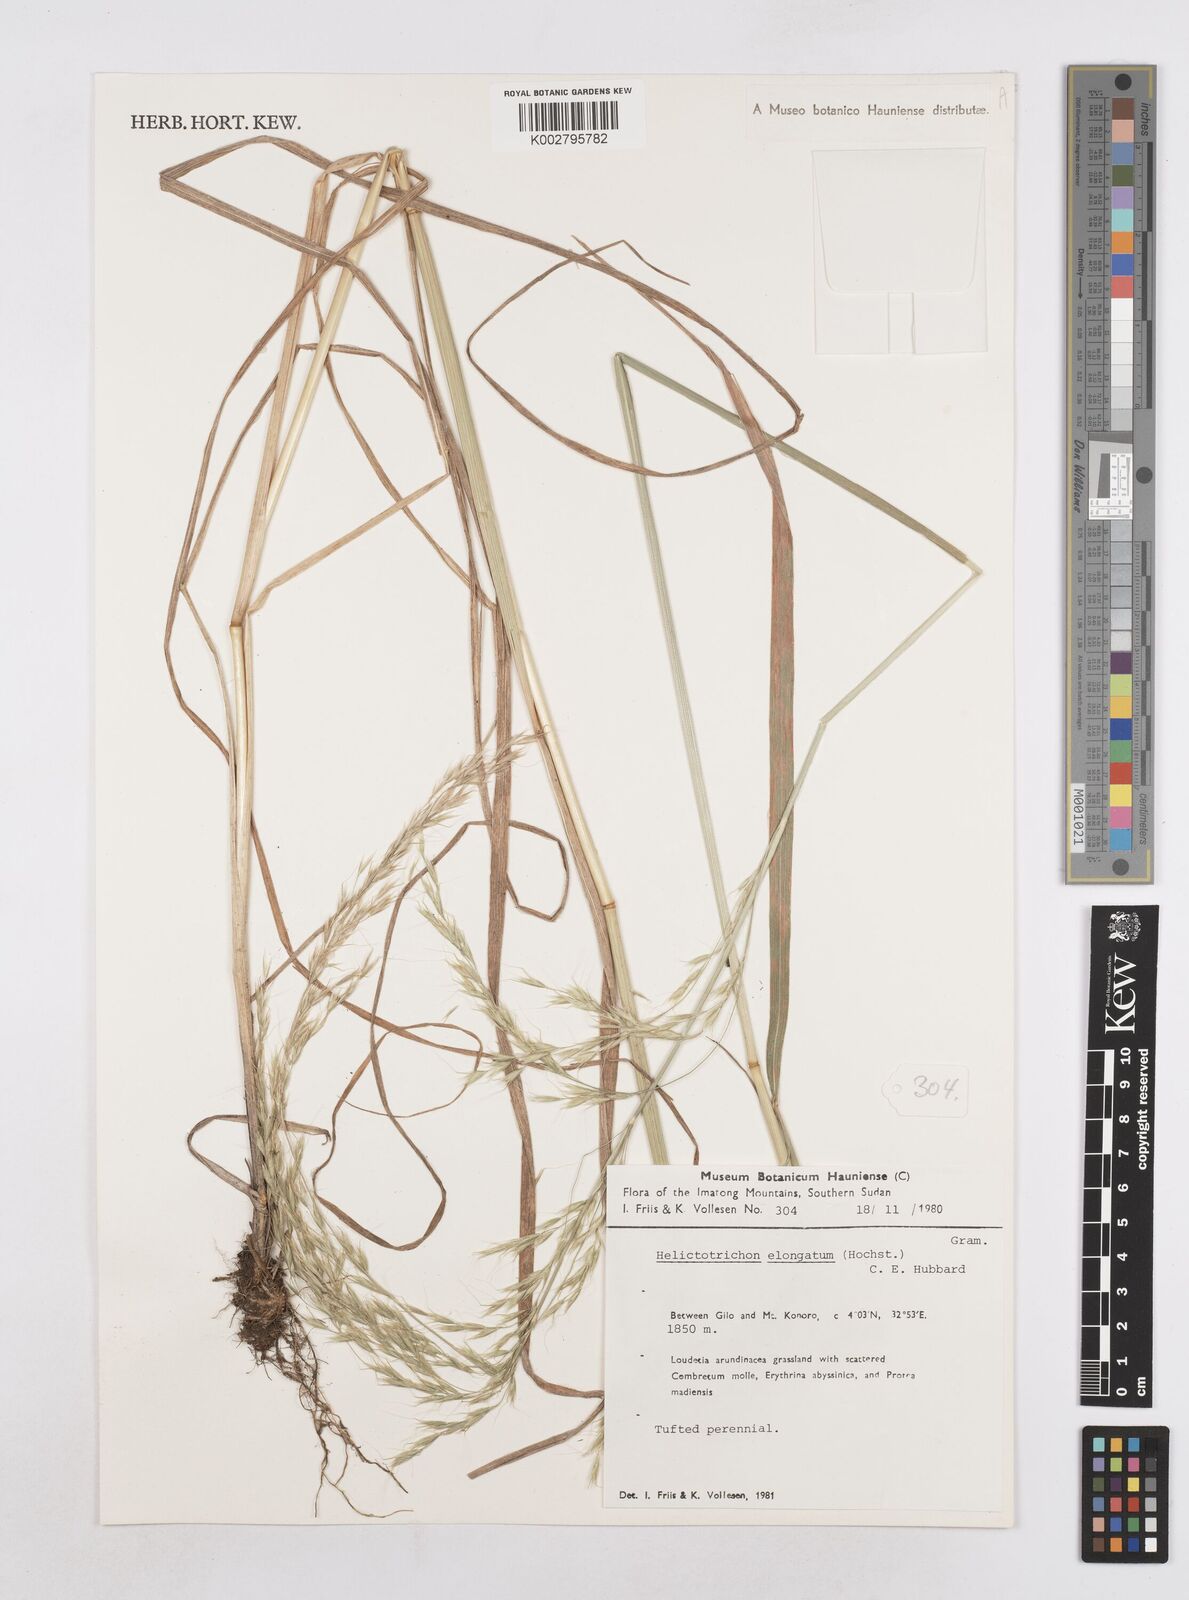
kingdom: Plantae
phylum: Tracheophyta
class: Liliopsida
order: Poales
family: Poaceae
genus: Trisetopsis
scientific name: Trisetopsis elongata
